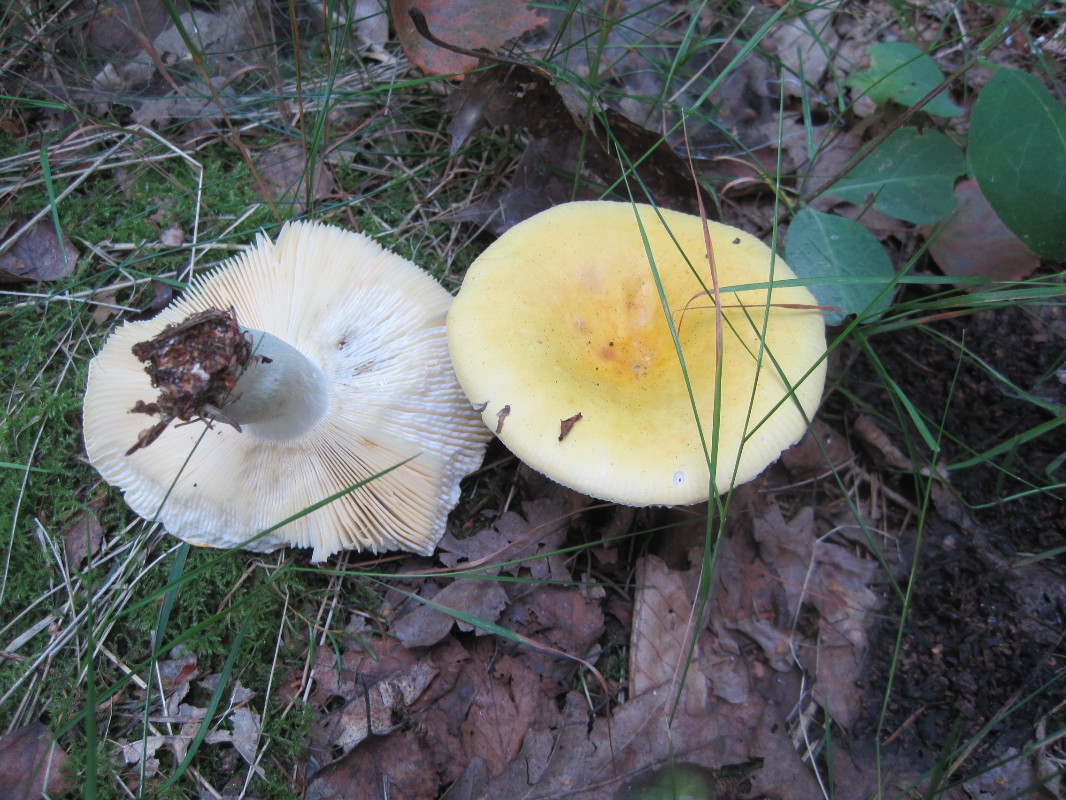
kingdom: Fungi
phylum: Basidiomycota
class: Agaricomycetes
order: Russulales
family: Russulaceae
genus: Russula
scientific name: Russula claroflava
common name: birke-skørhat
